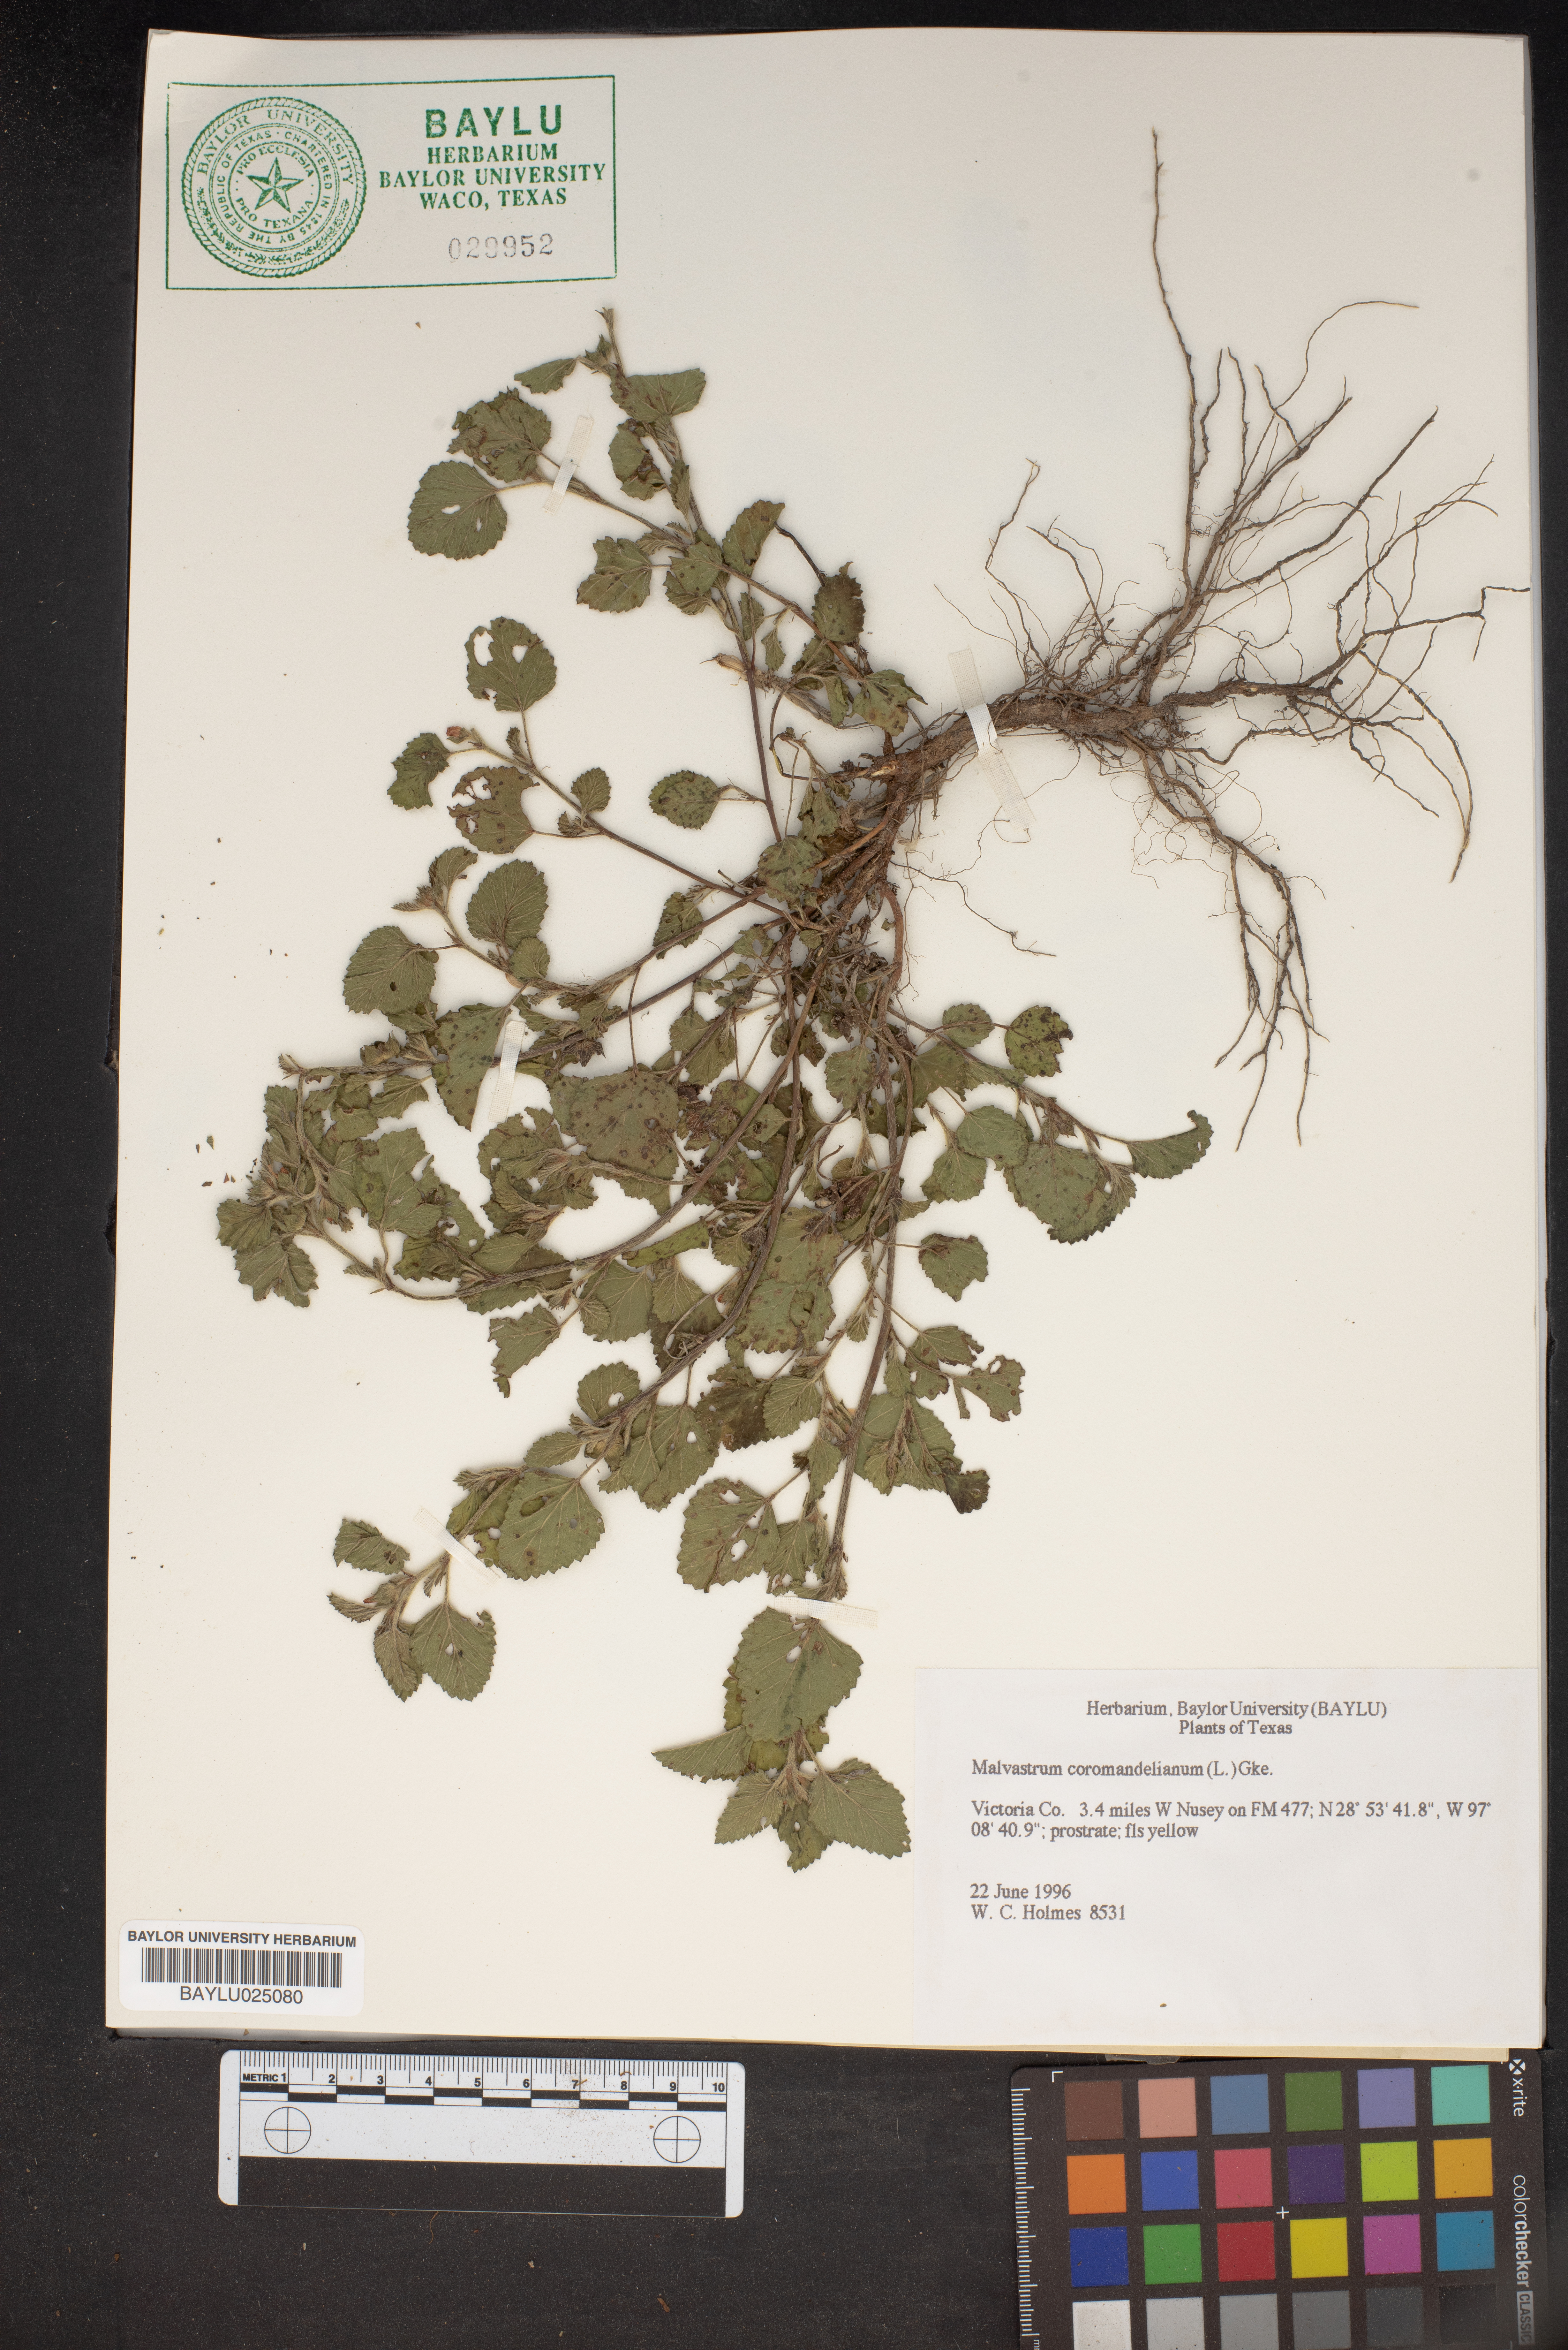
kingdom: Plantae
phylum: Tracheophyta
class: Magnoliopsida
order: Malvales
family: Malvaceae
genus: Malvastrum
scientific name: Malvastrum coromandelianum
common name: Threelobe false mallow
